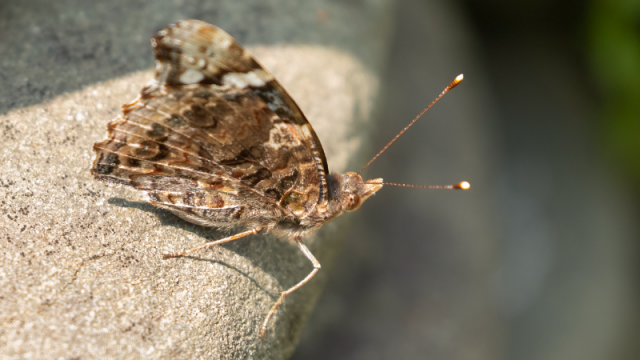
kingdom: Animalia
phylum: Arthropoda
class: Insecta
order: Lepidoptera
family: Nymphalidae
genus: Vanessa
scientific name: Vanessa atalanta
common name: Red Admiral
